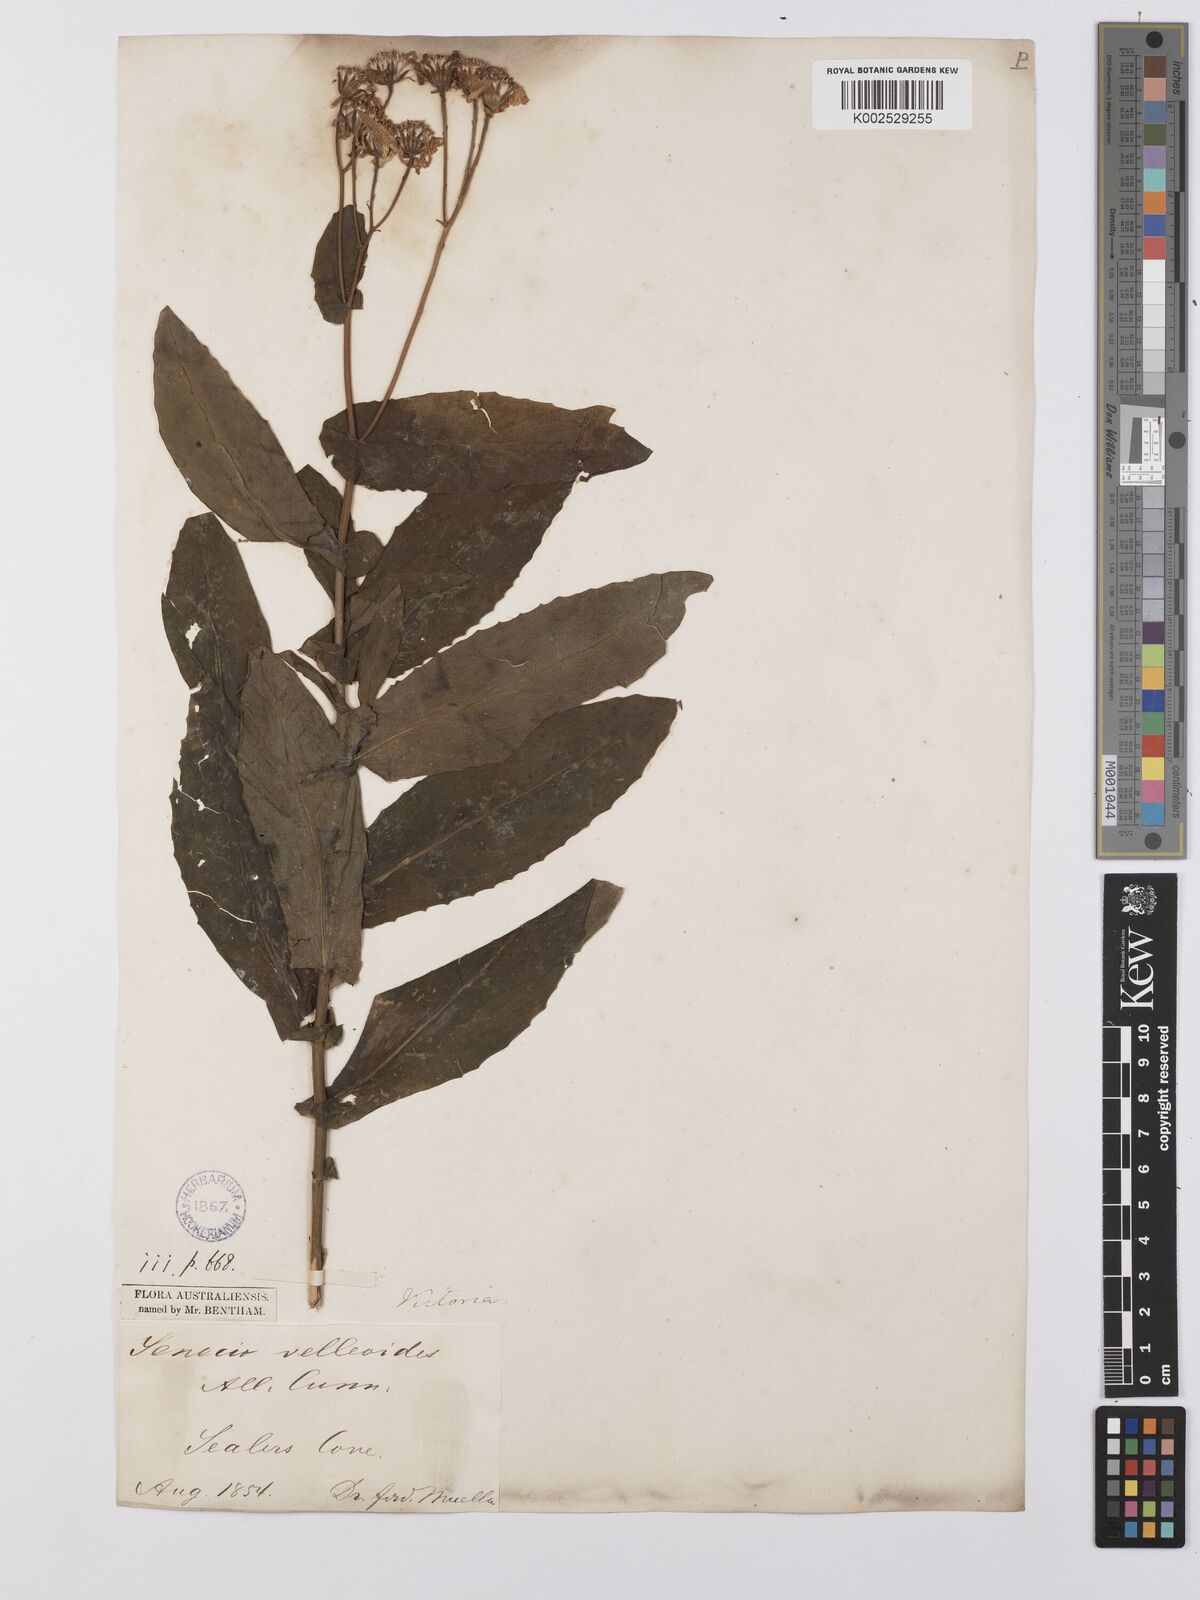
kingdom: Plantae
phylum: Tracheophyta
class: Magnoliopsida
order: Asterales
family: Asteraceae
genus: Lordhowea
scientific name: Lordhowea velleioides
